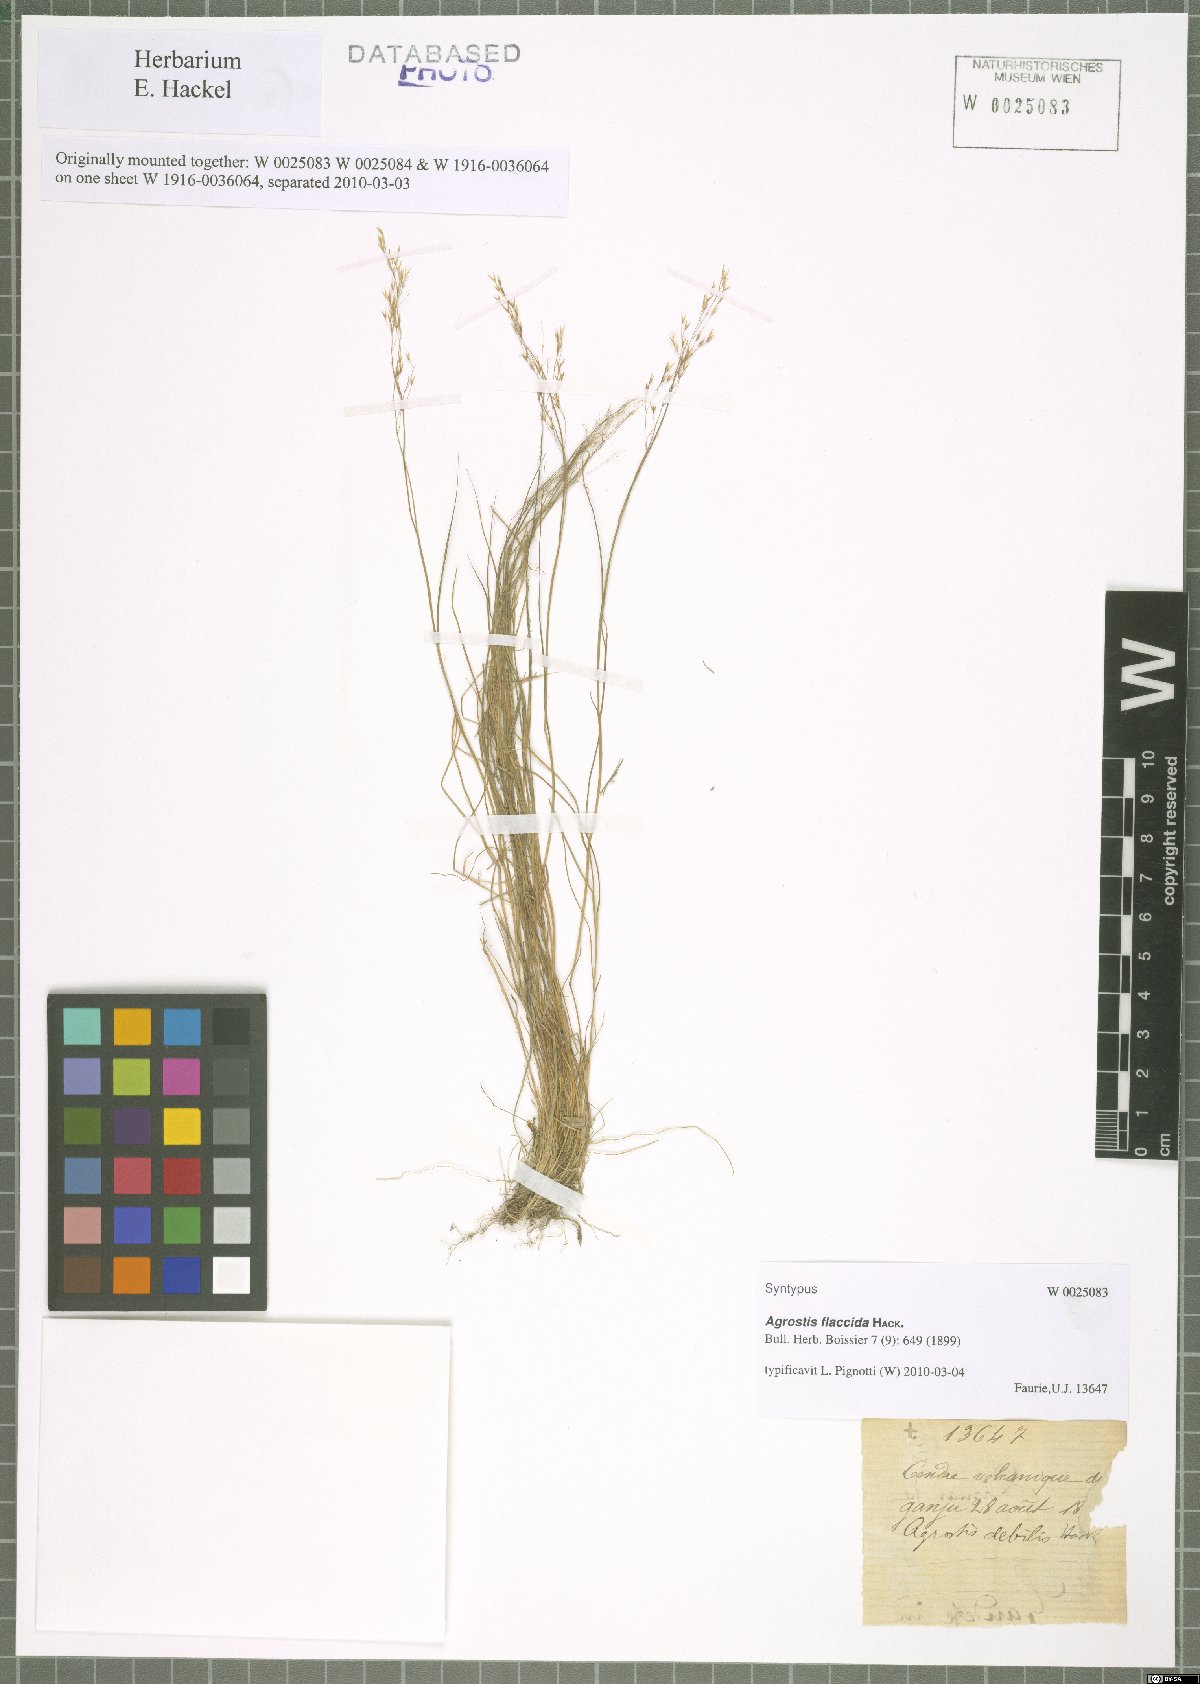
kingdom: Plantae
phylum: Tracheophyta
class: Liliopsida
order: Poales
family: Poaceae
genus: Agrostis
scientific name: Agrostis flaccida
